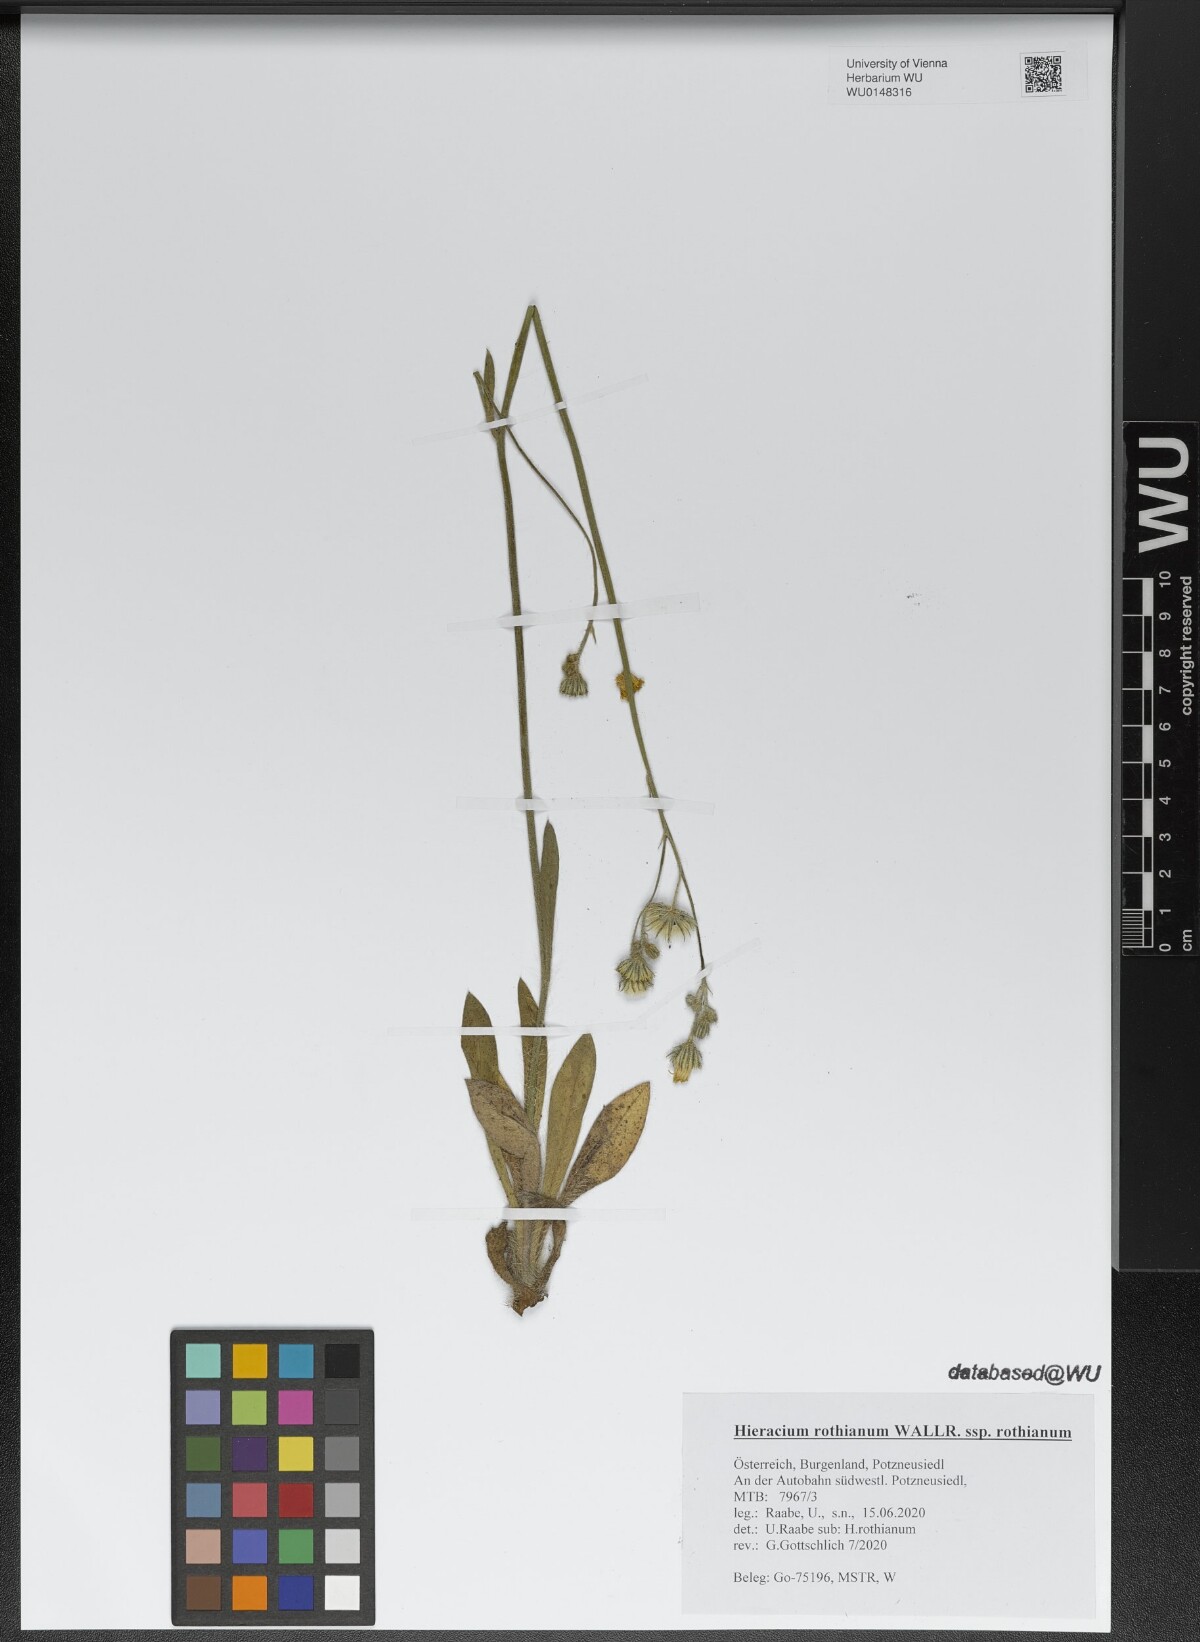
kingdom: Plantae
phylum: Tracheophyta
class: Magnoliopsida
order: Asterales
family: Asteraceae
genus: Pilosella
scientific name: Pilosella rothiana
